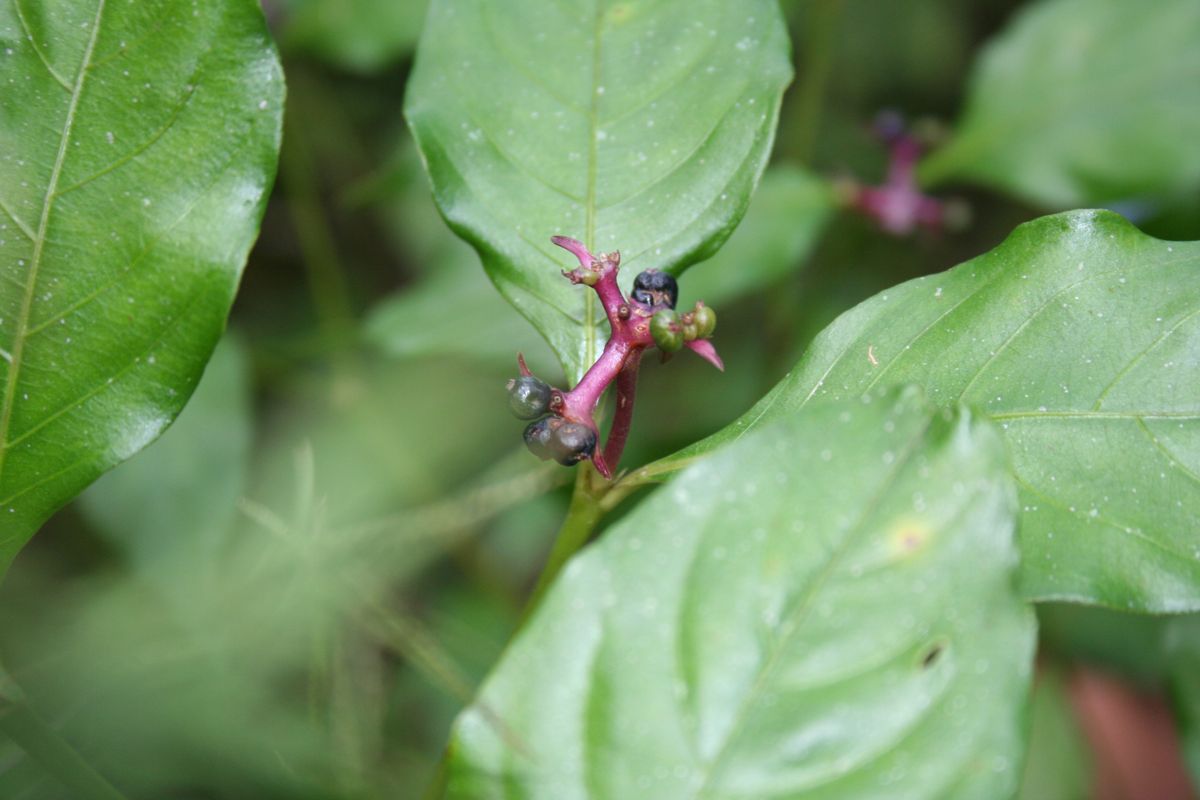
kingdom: Plantae
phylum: Tracheophyta
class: Magnoliopsida
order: Gentianales
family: Rubiaceae
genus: Palicourea
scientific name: Palicourea winkleri
